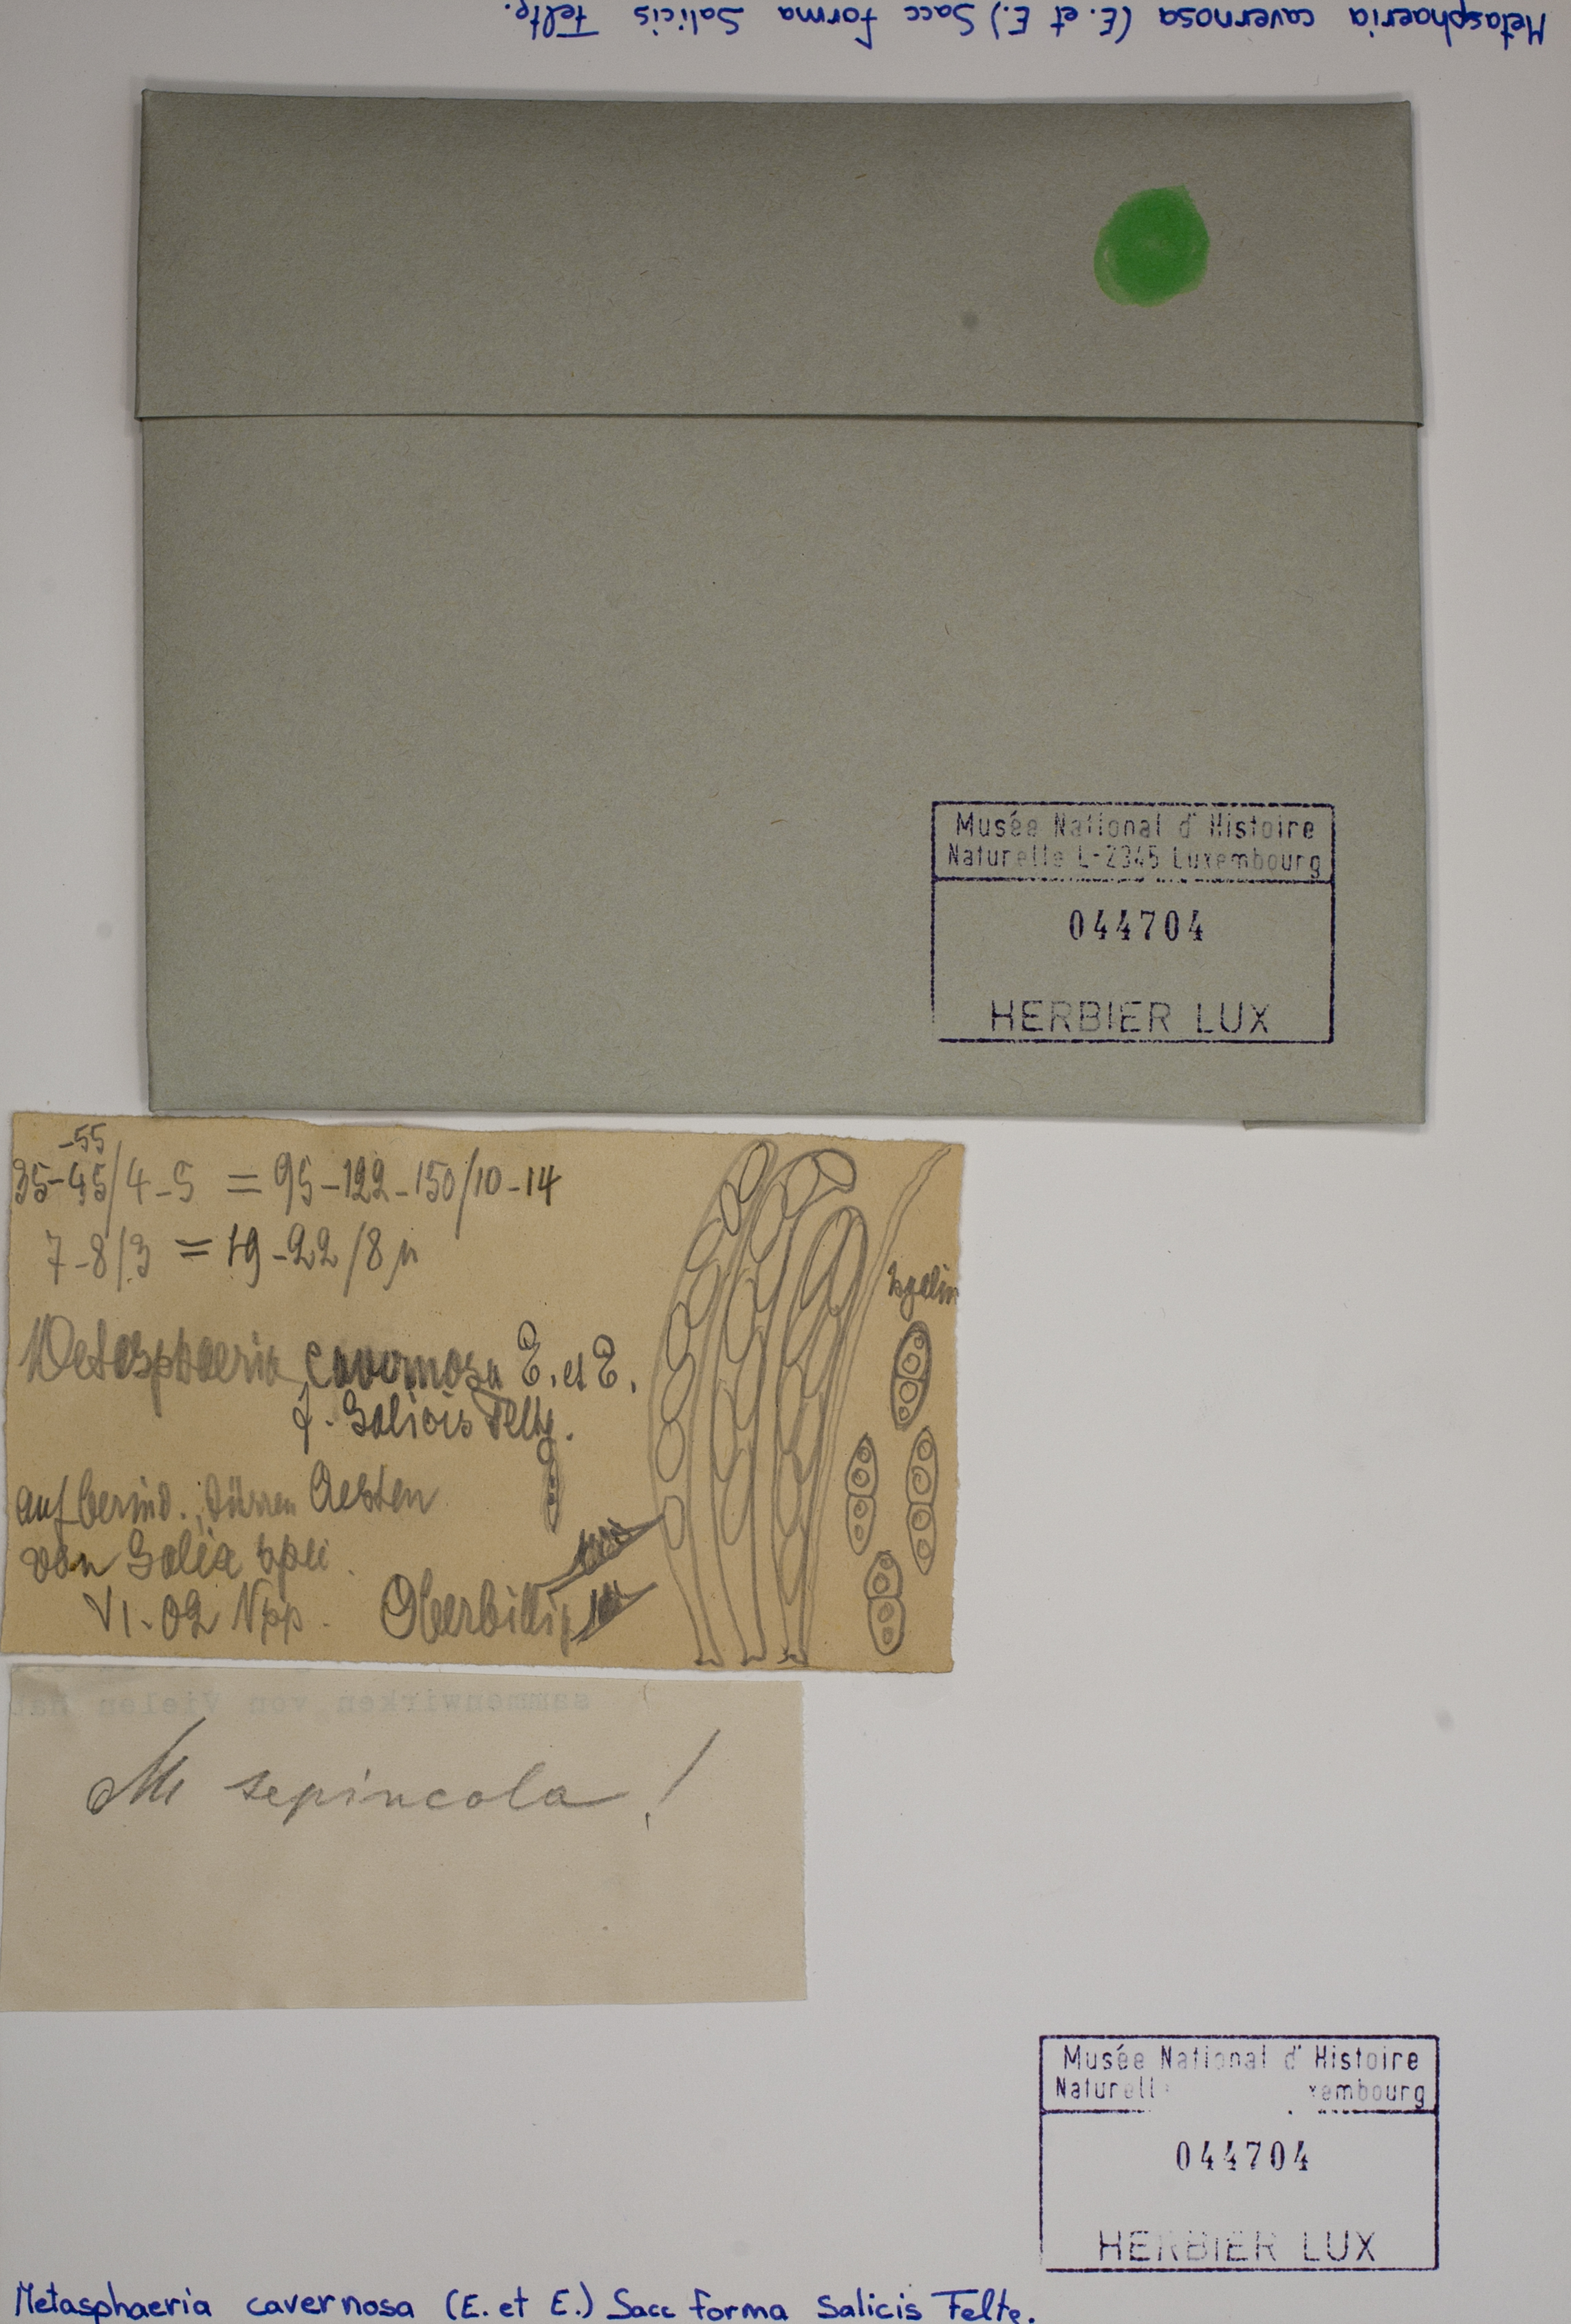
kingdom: Fungi
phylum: Ascomycota
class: Dothideomycetes
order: Dothideales
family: Saccotheciaceae
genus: Metasphaeria
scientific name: Metasphaeria
